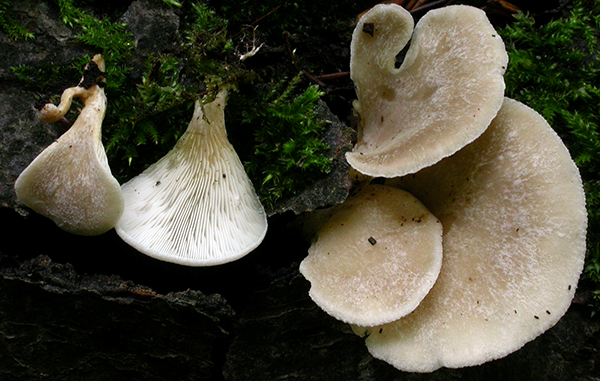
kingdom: Fungi
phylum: Basidiomycota
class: Agaricomycetes
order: Agaricales
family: Pleurotaceae
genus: Hohenbuehelia
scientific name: Hohenbuehelia auriscalpium
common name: spatel-filthat
